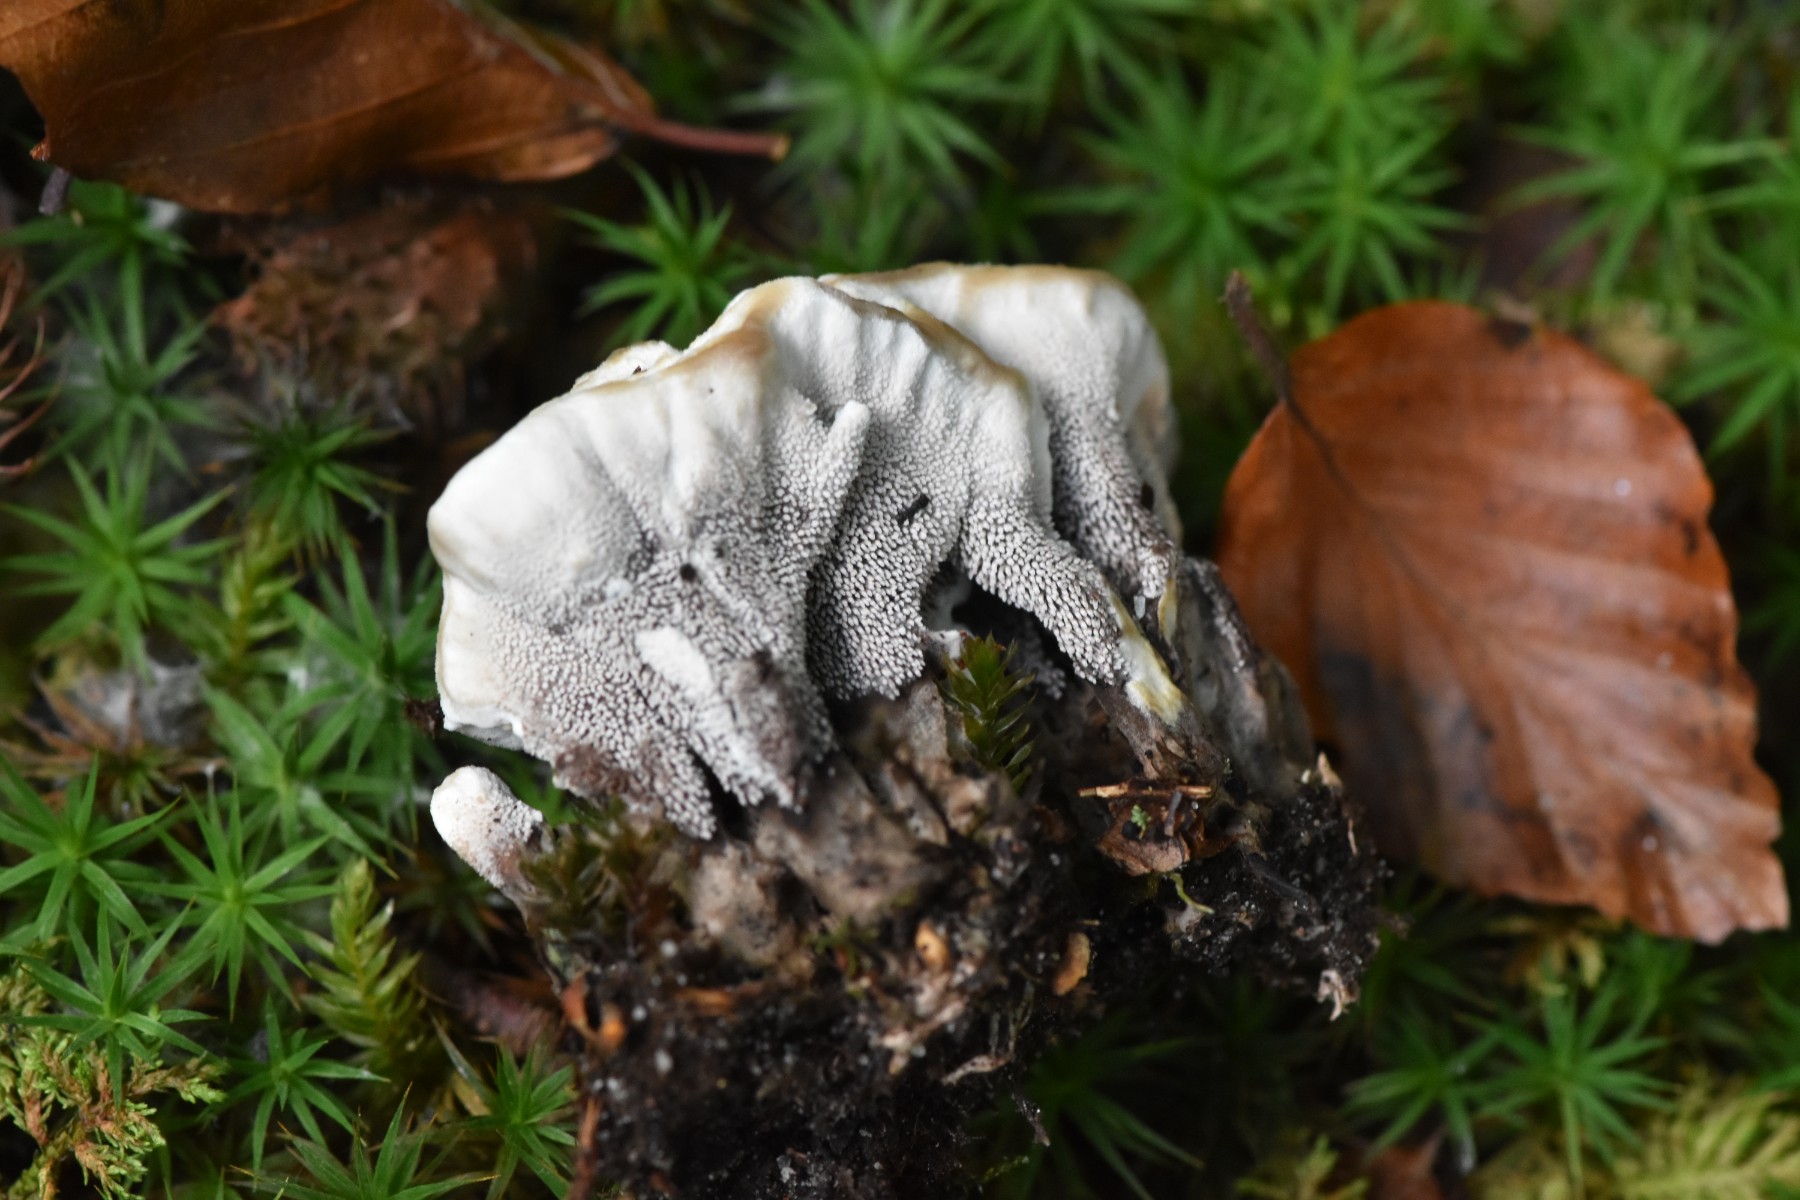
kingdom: Fungi
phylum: Basidiomycota
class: Agaricomycetes
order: Thelephorales
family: Thelephoraceae
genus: Phellodon
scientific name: Phellodon confluens
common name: pjaltet duftpigsvamp
